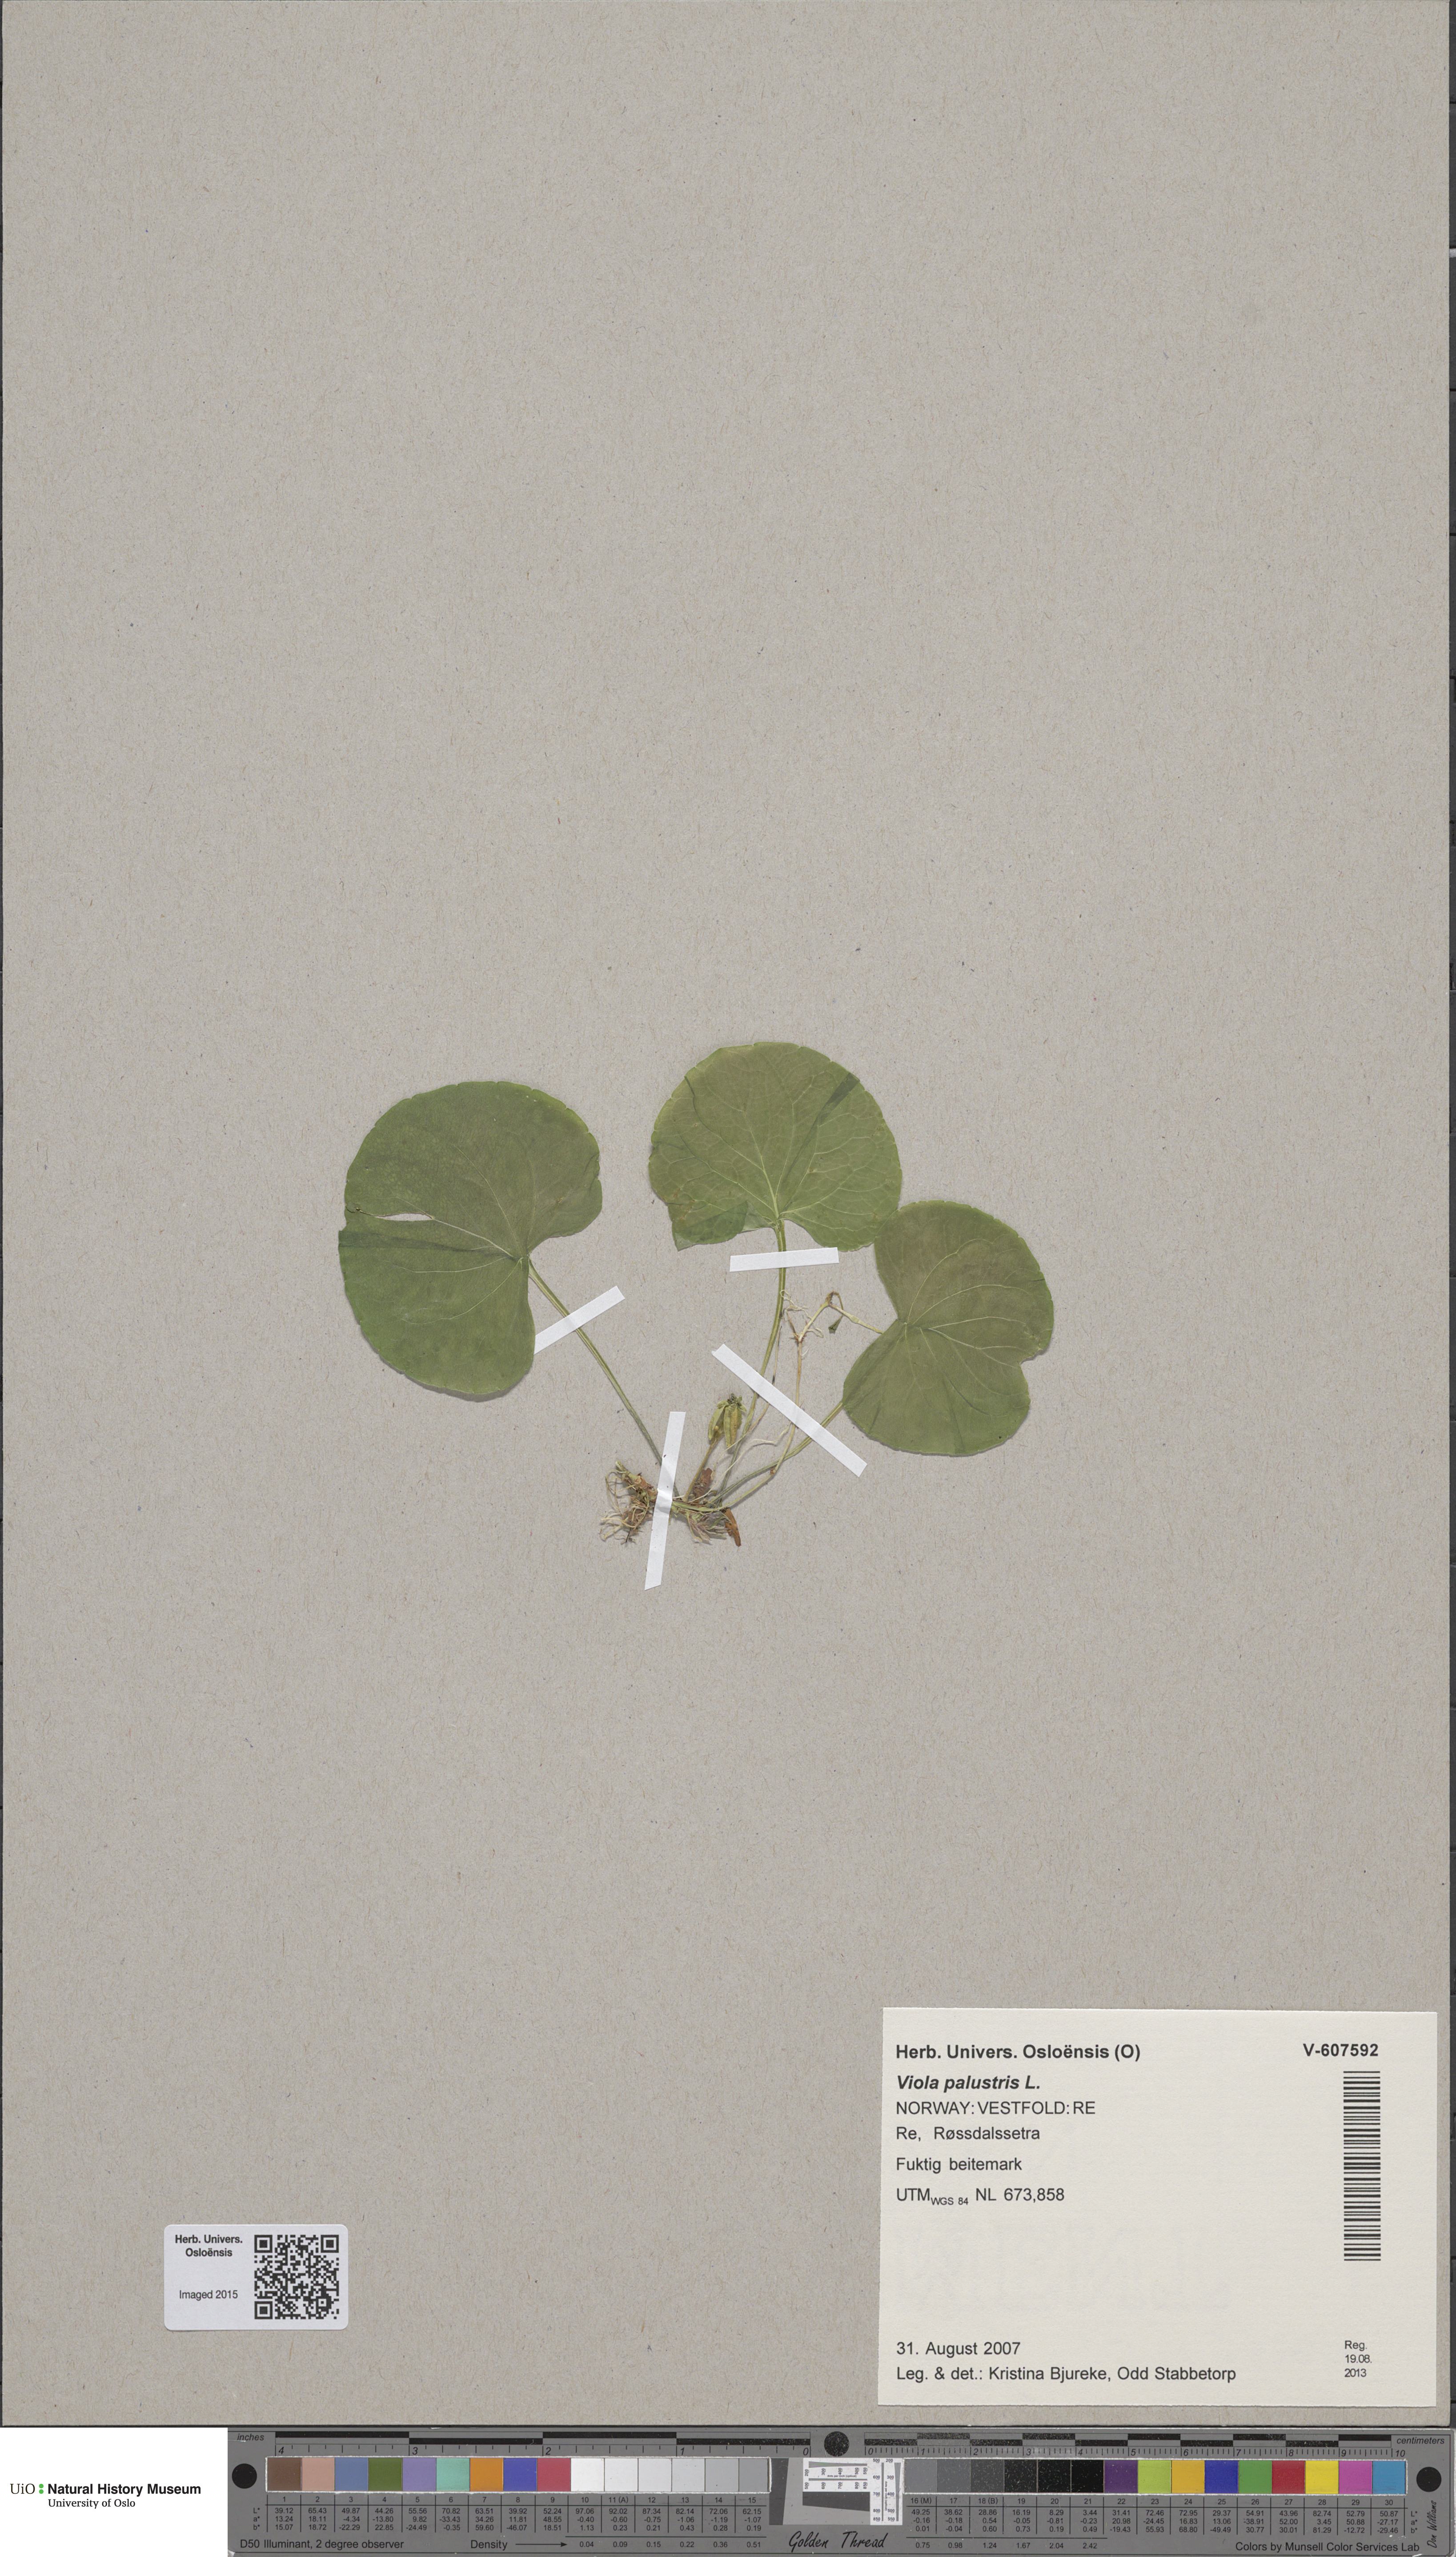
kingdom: Plantae
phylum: Tracheophyta
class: Magnoliopsida
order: Malpighiales
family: Violaceae
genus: Viola
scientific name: Viola palustris
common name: Marsh violet
